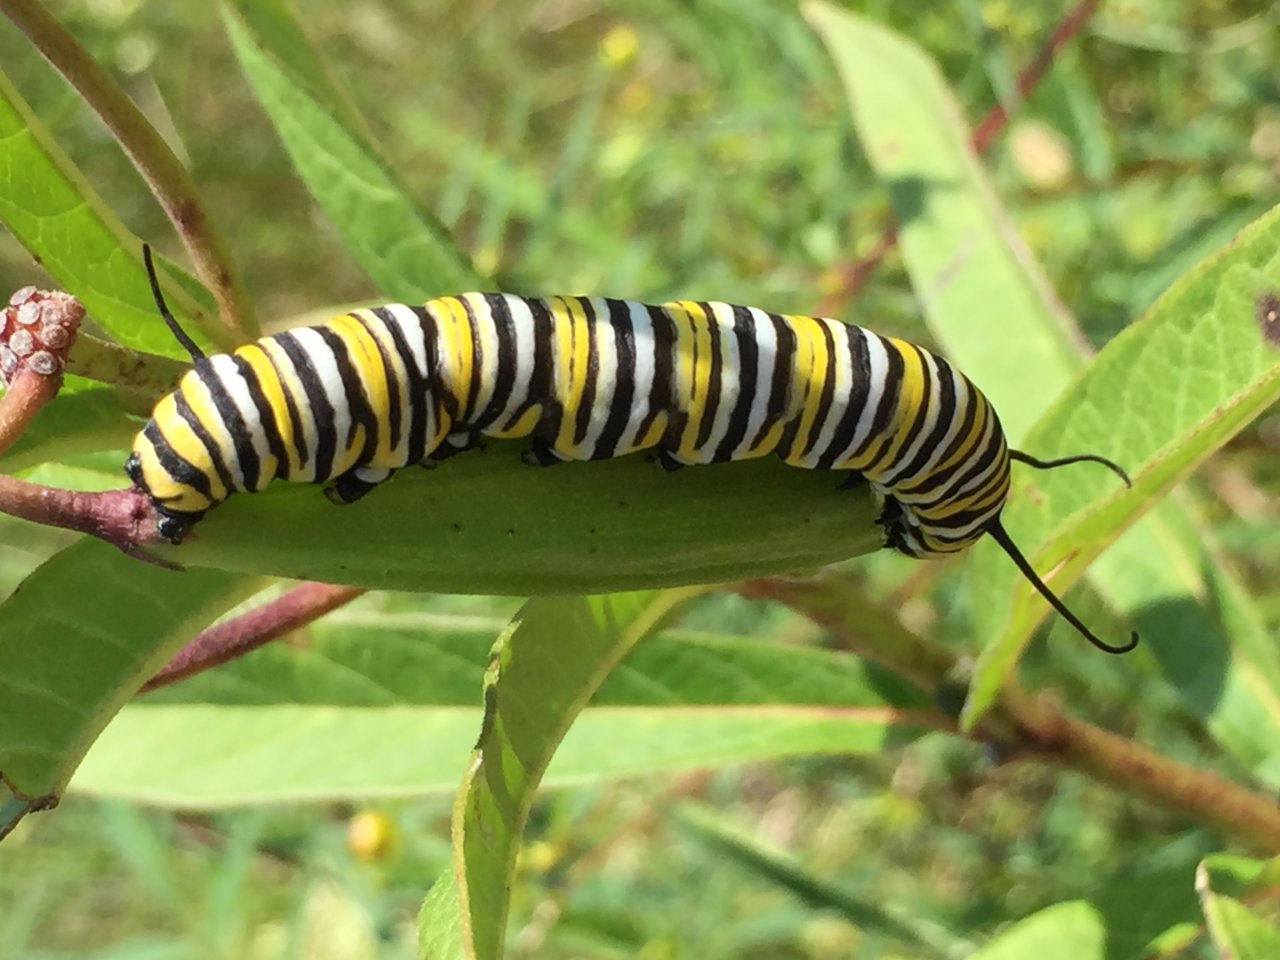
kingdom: Animalia
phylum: Arthropoda
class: Insecta
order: Lepidoptera
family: Nymphalidae
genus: Danaus
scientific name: Danaus plexippus
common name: Monarch
